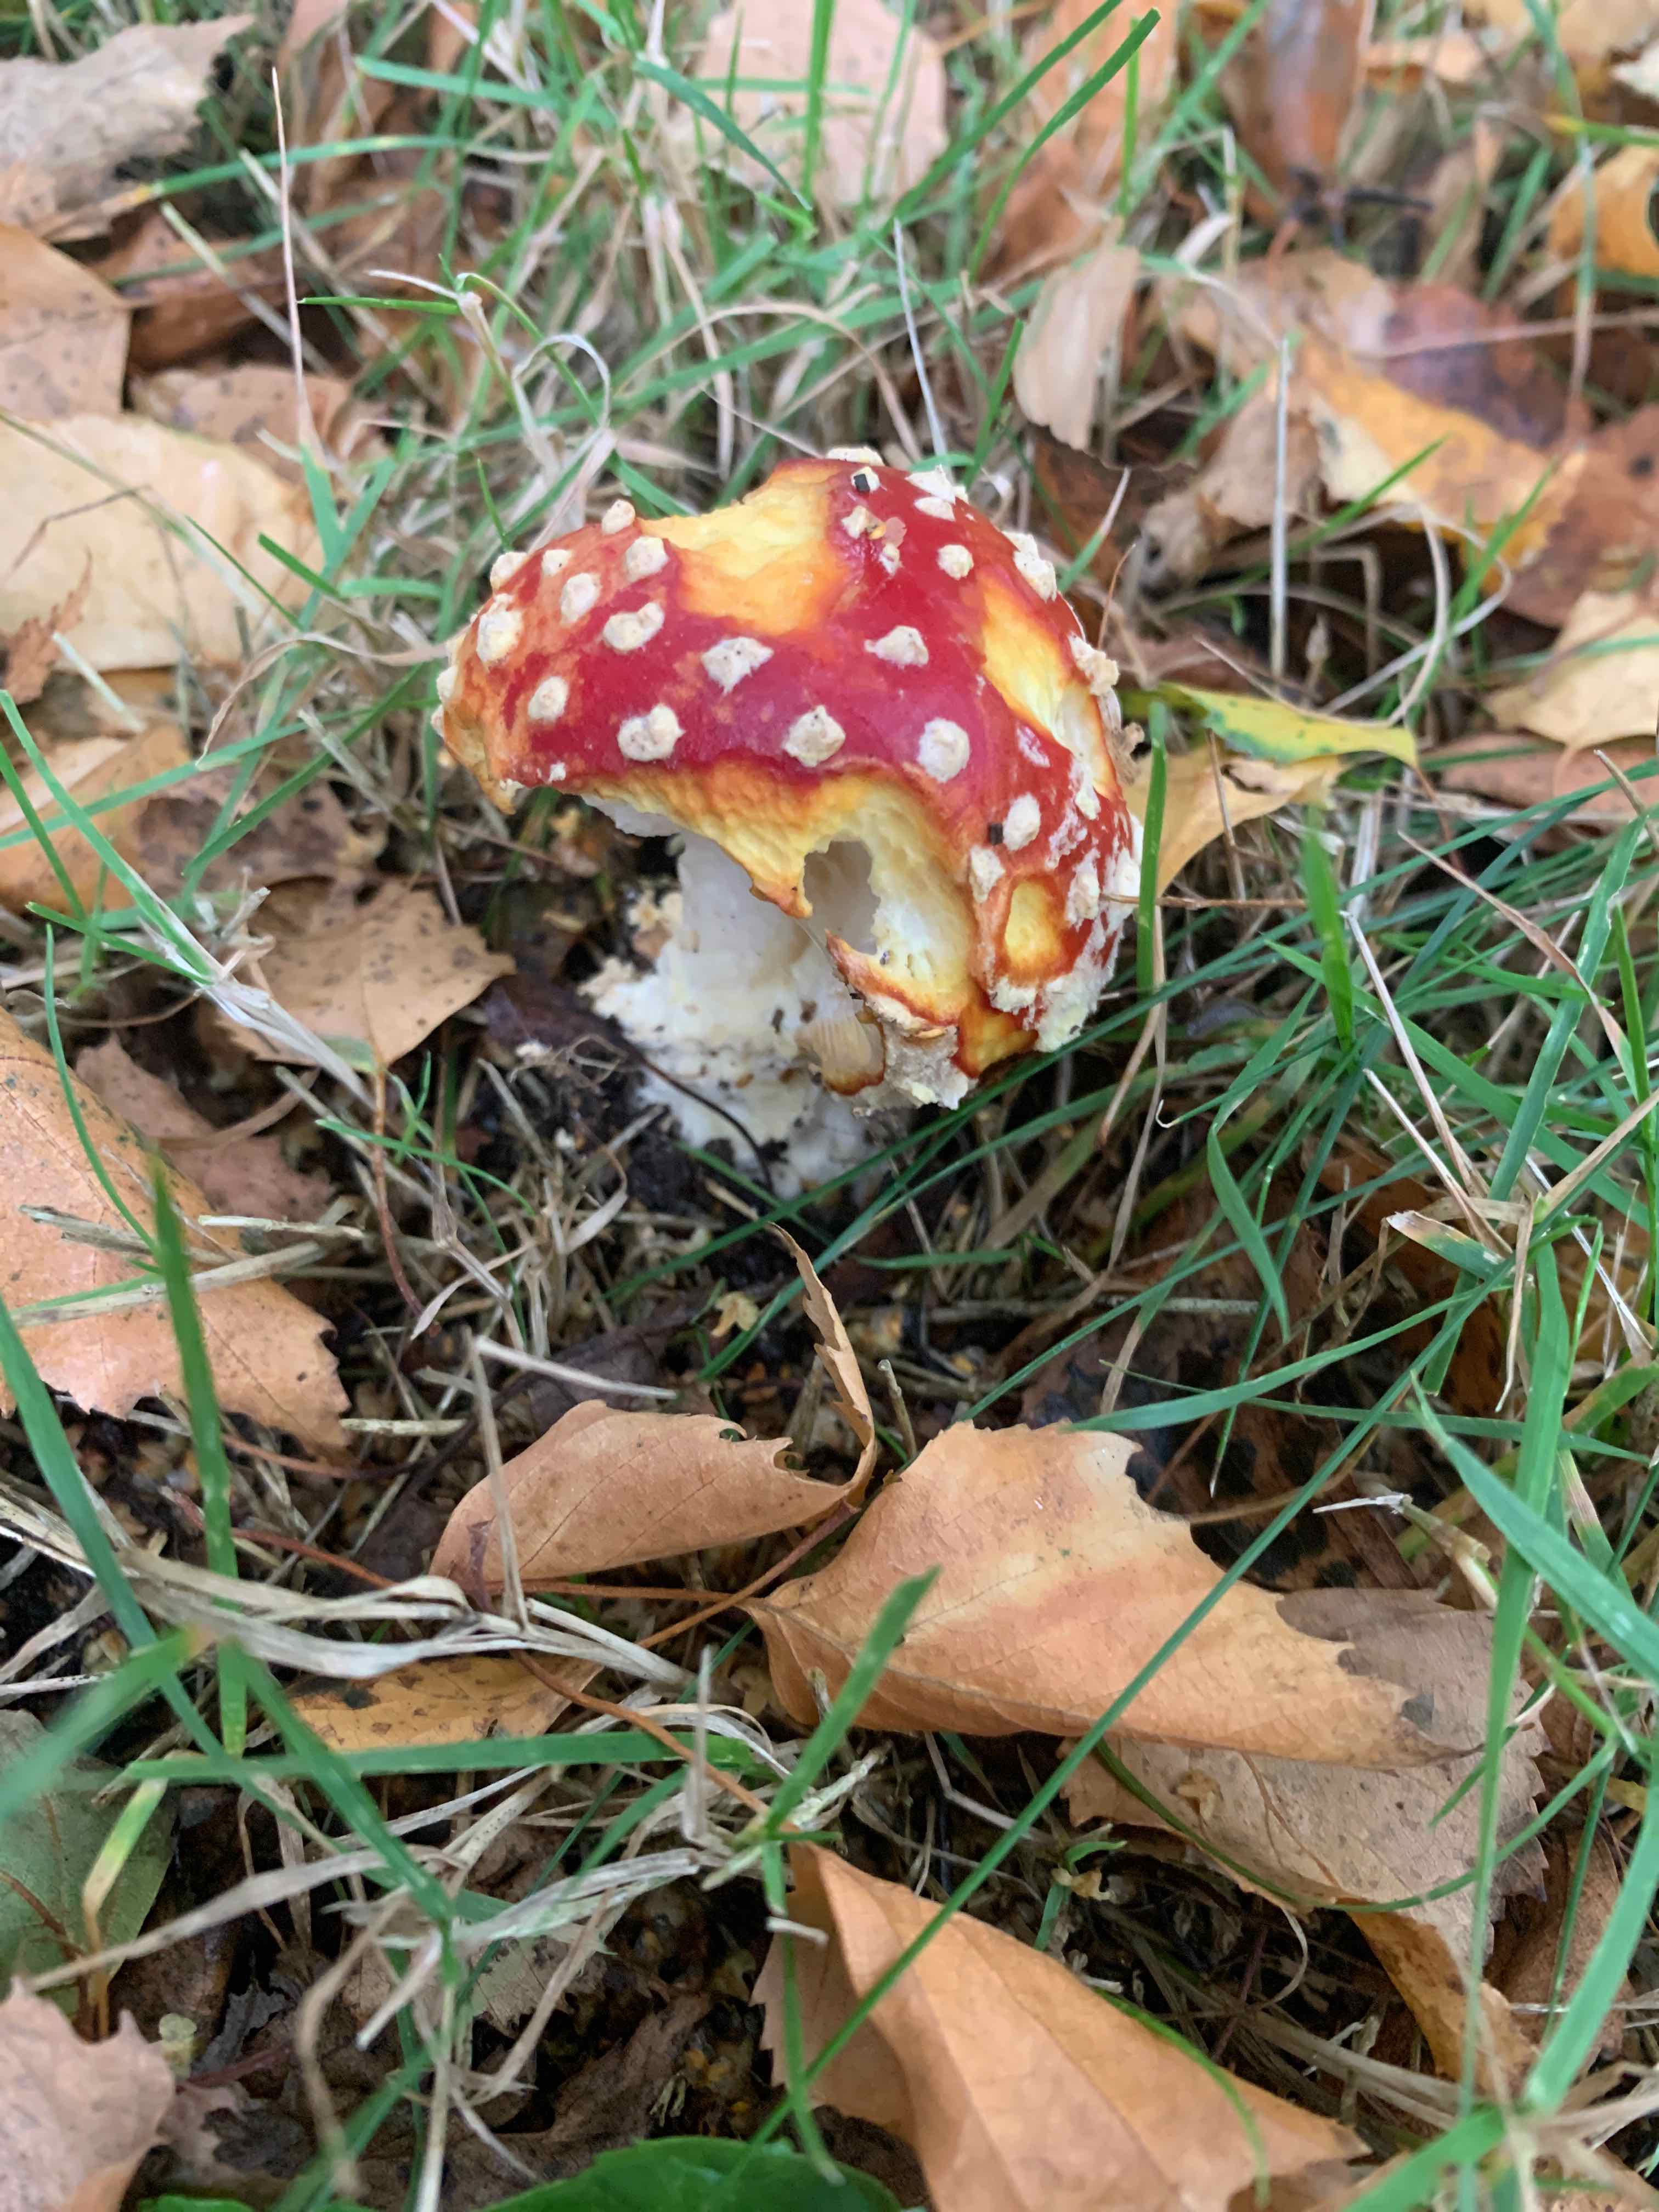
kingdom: Fungi
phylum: Basidiomycota
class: Agaricomycetes
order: Agaricales
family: Amanitaceae
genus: Amanita
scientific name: Amanita muscaria
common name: rød fluesvamp
